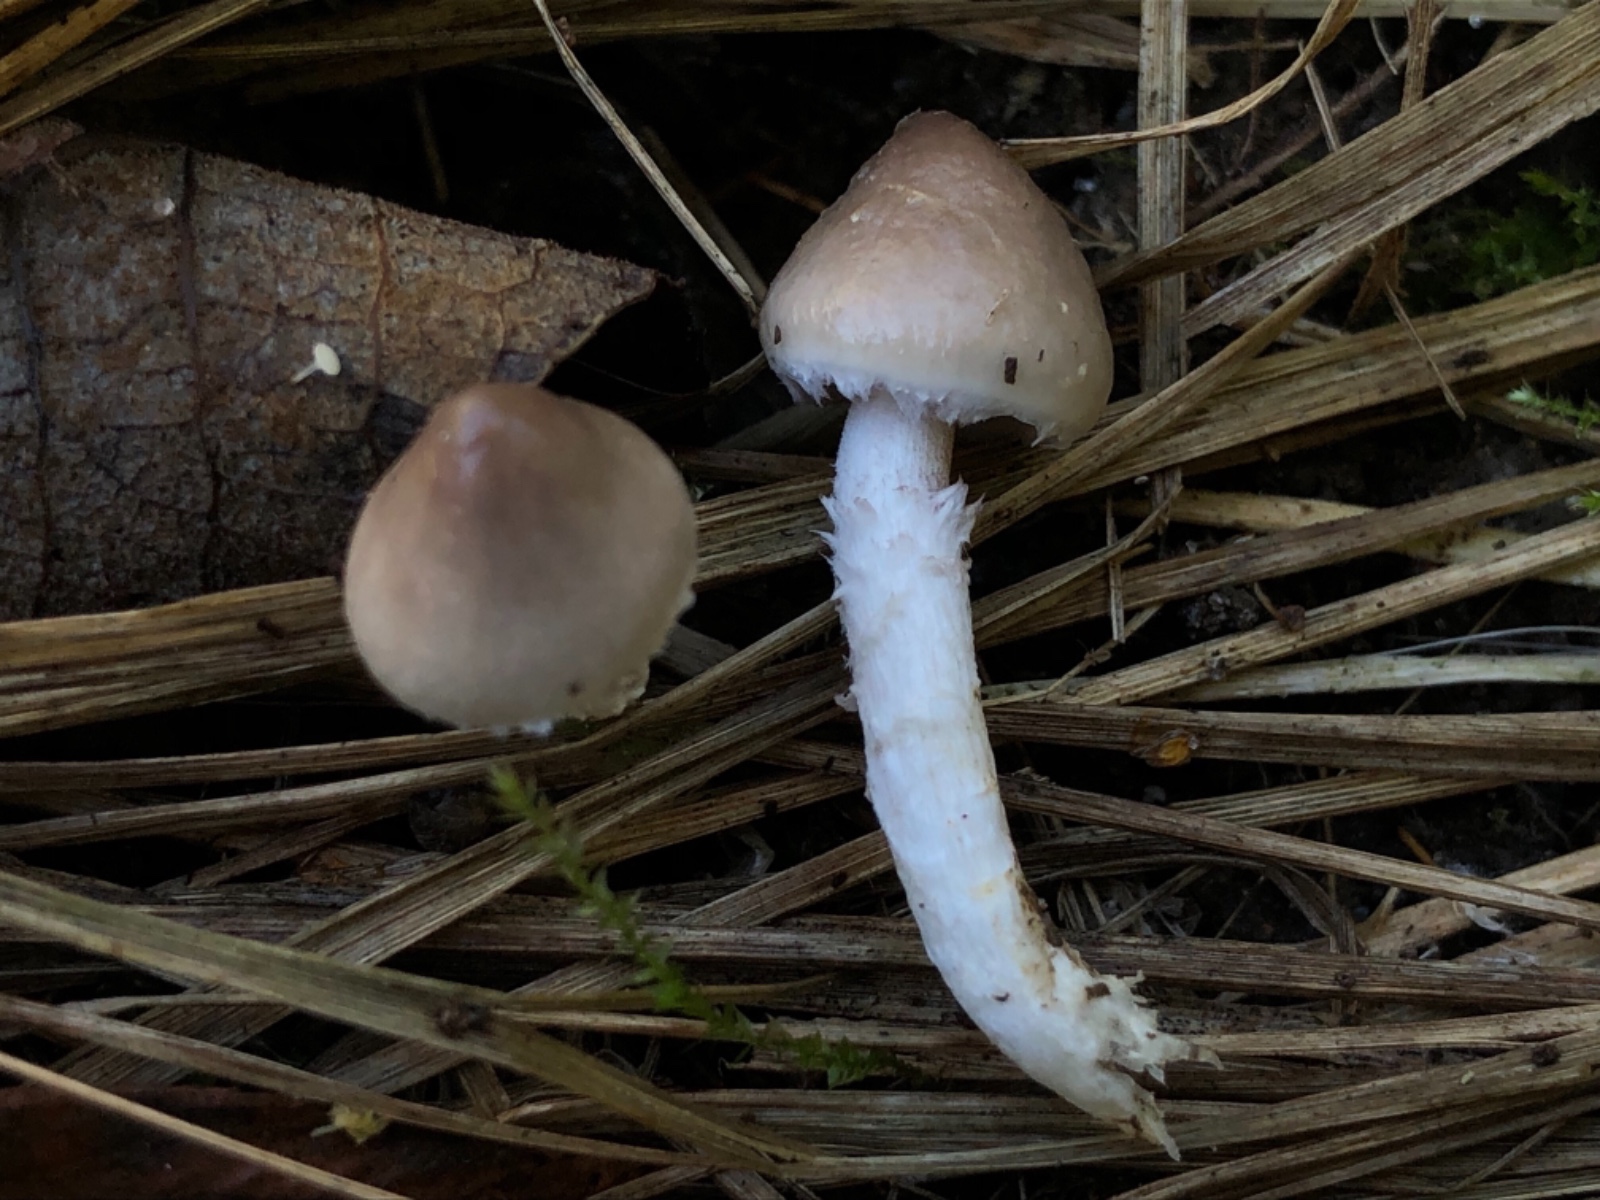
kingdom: Fungi
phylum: Basidiomycota
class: Agaricomycetes
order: Agaricales
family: Strophariaceae
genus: Stropharia
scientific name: Stropharia inuncta
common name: lillabrun bredblad
